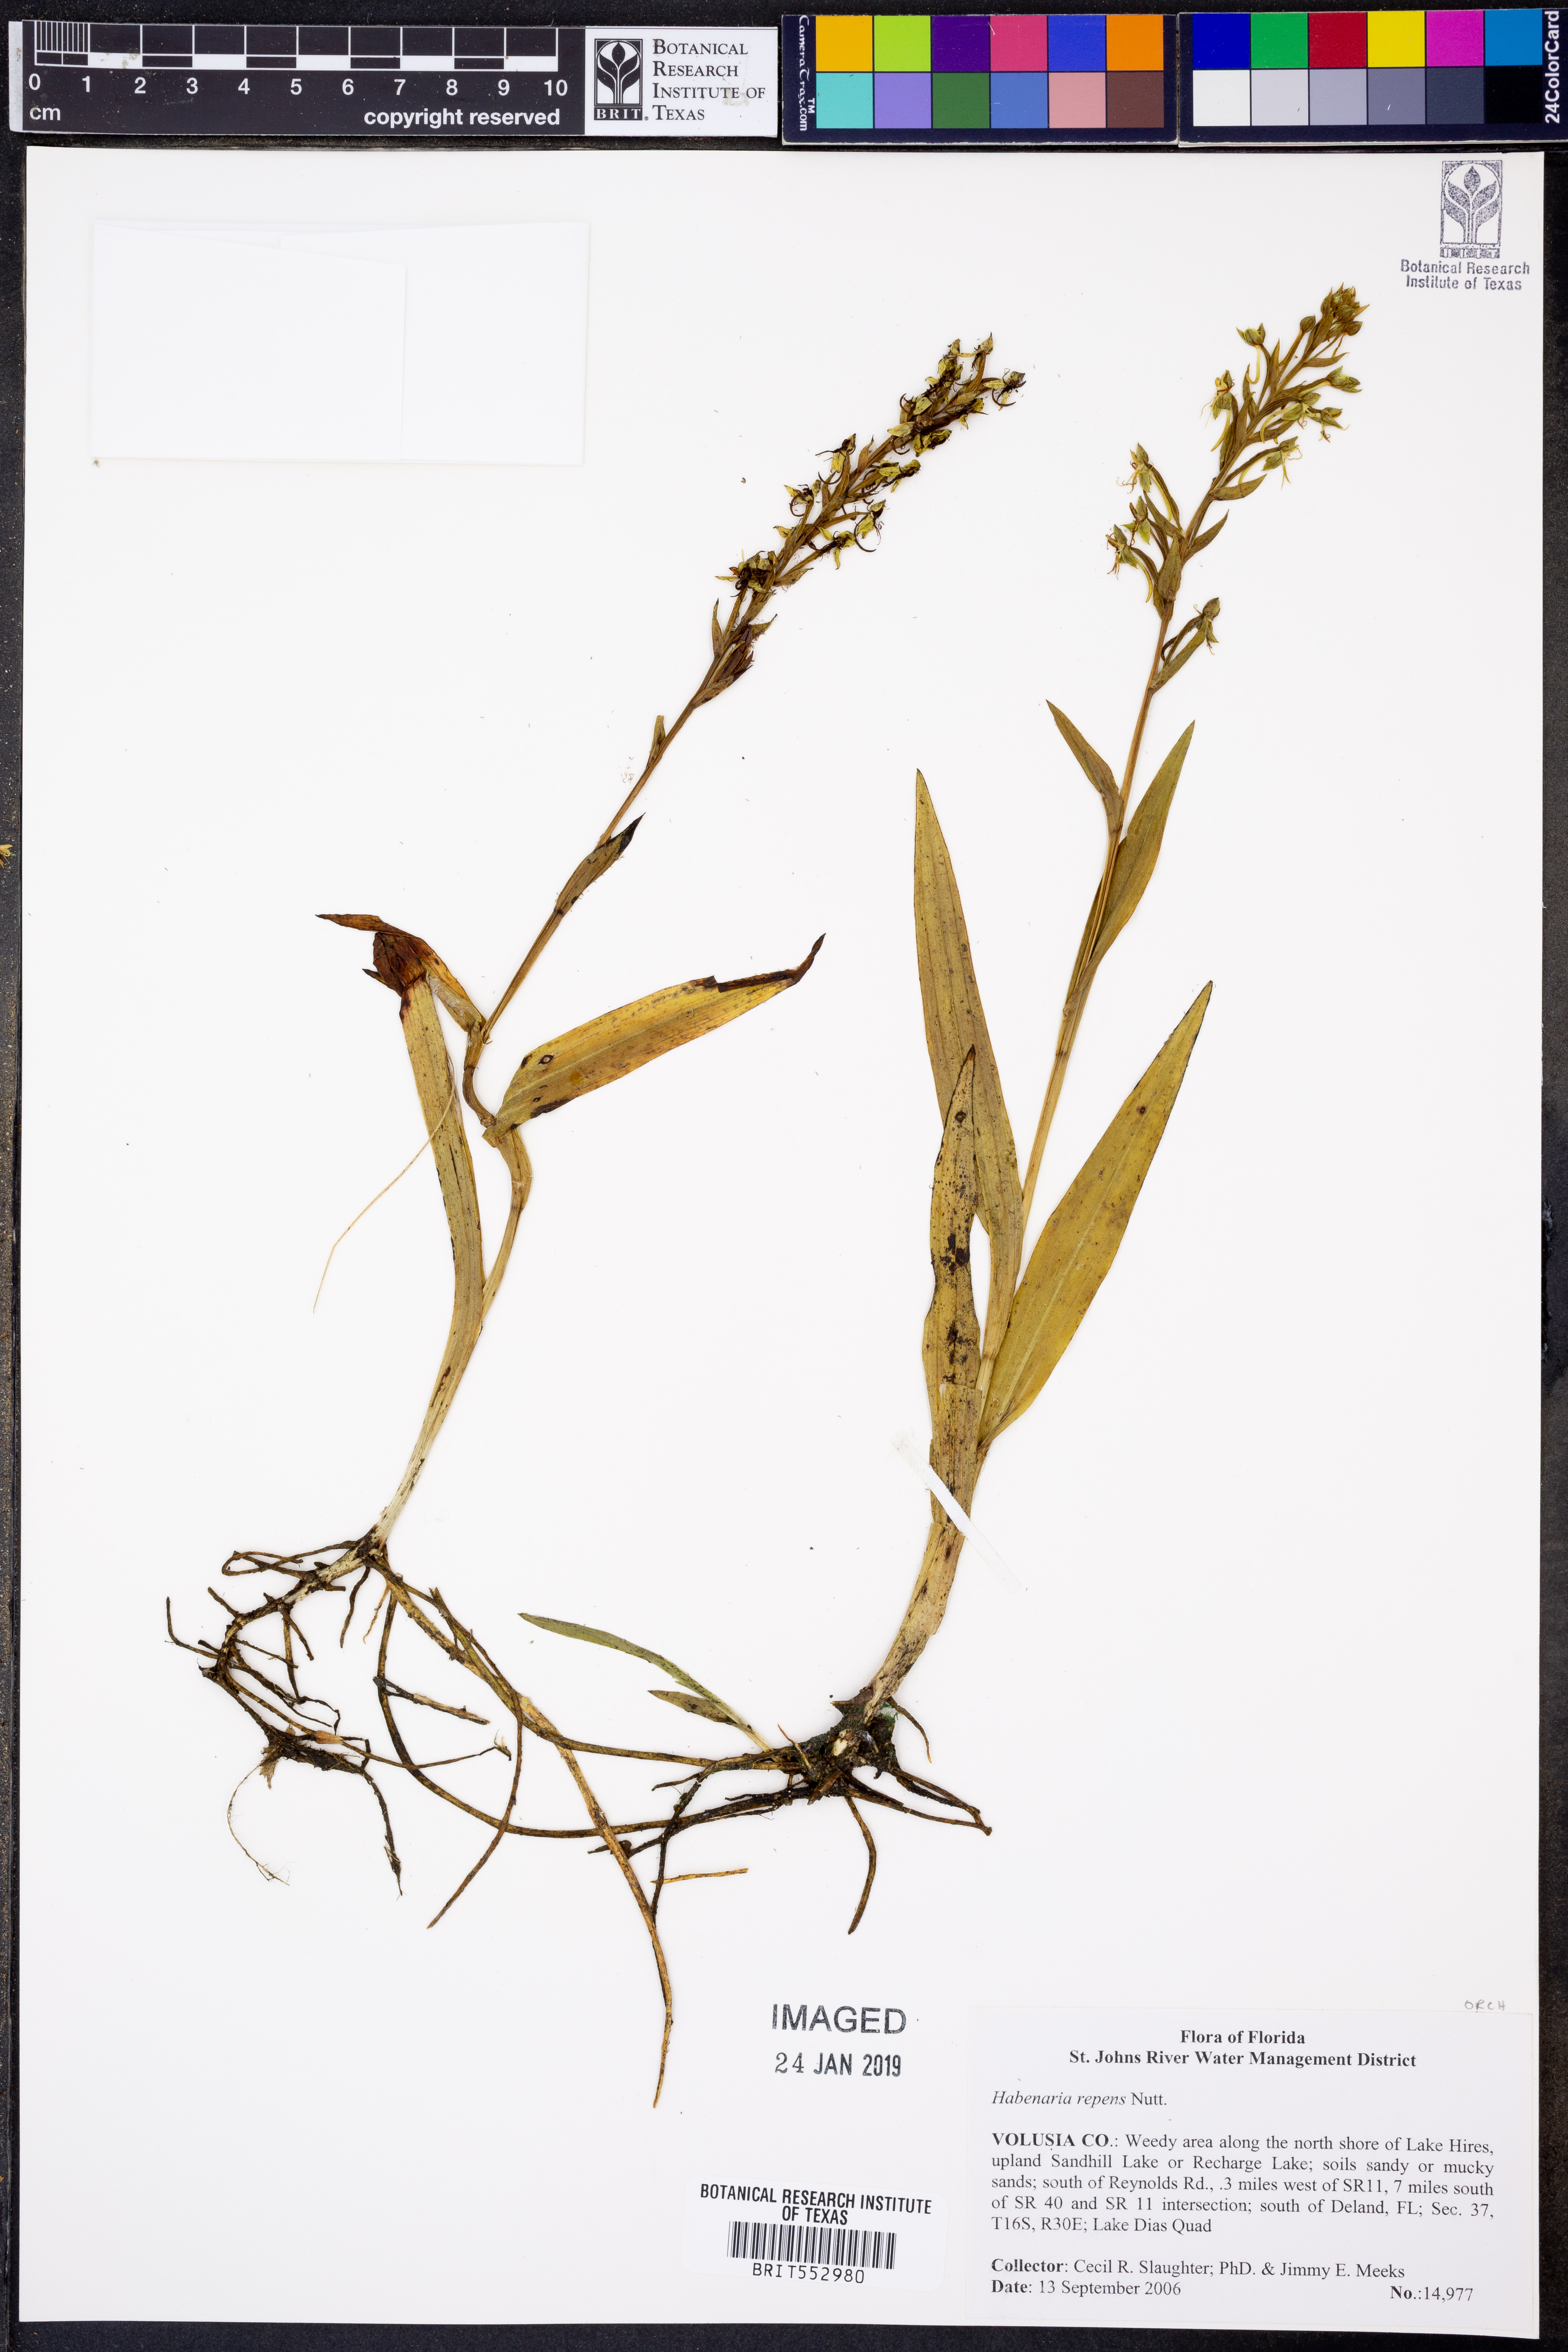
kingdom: Plantae
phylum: Tracheophyta
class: Liliopsida
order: Asparagales
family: Orchidaceae
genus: Habenaria
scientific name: Habenaria repens
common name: Water orchid
